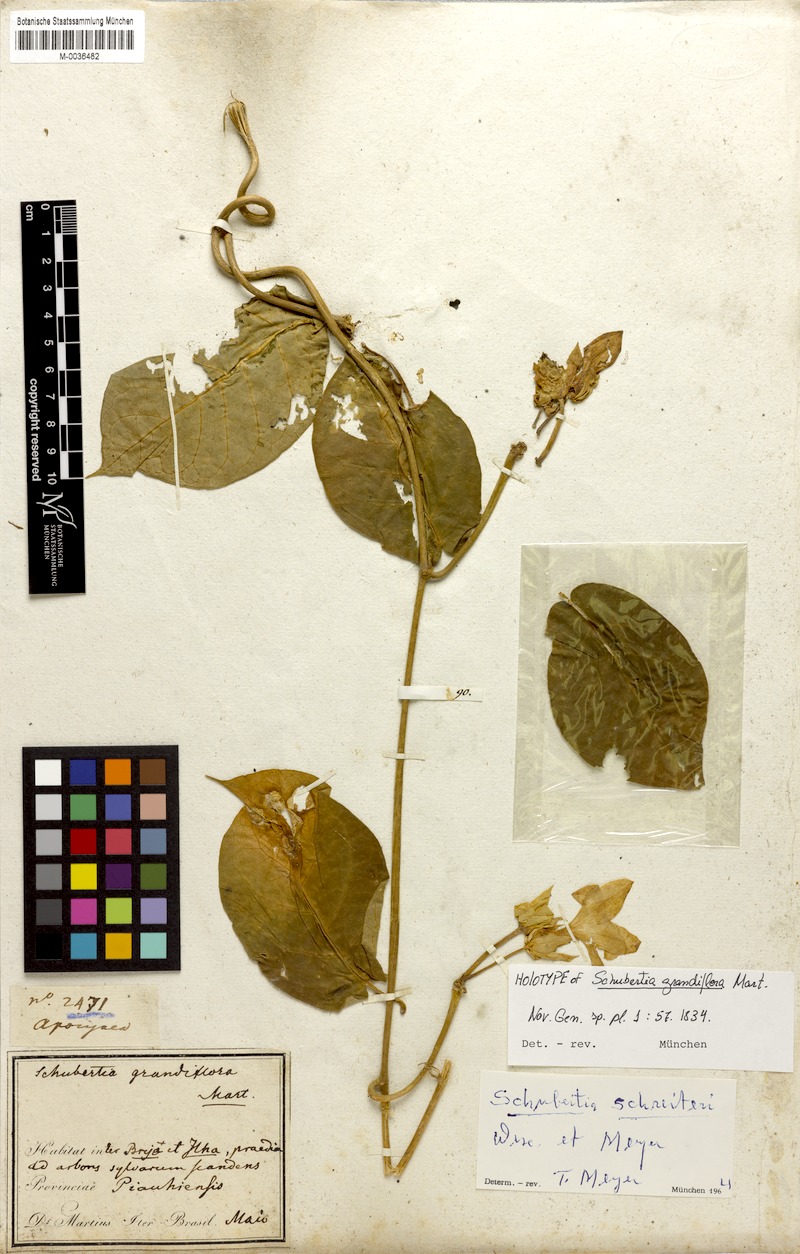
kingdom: Plantae
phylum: Tracheophyta
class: Magnoliopsida
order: Gentianales
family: Apocynaceae
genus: Macroscepis
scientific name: Macroscepis grandiflora
